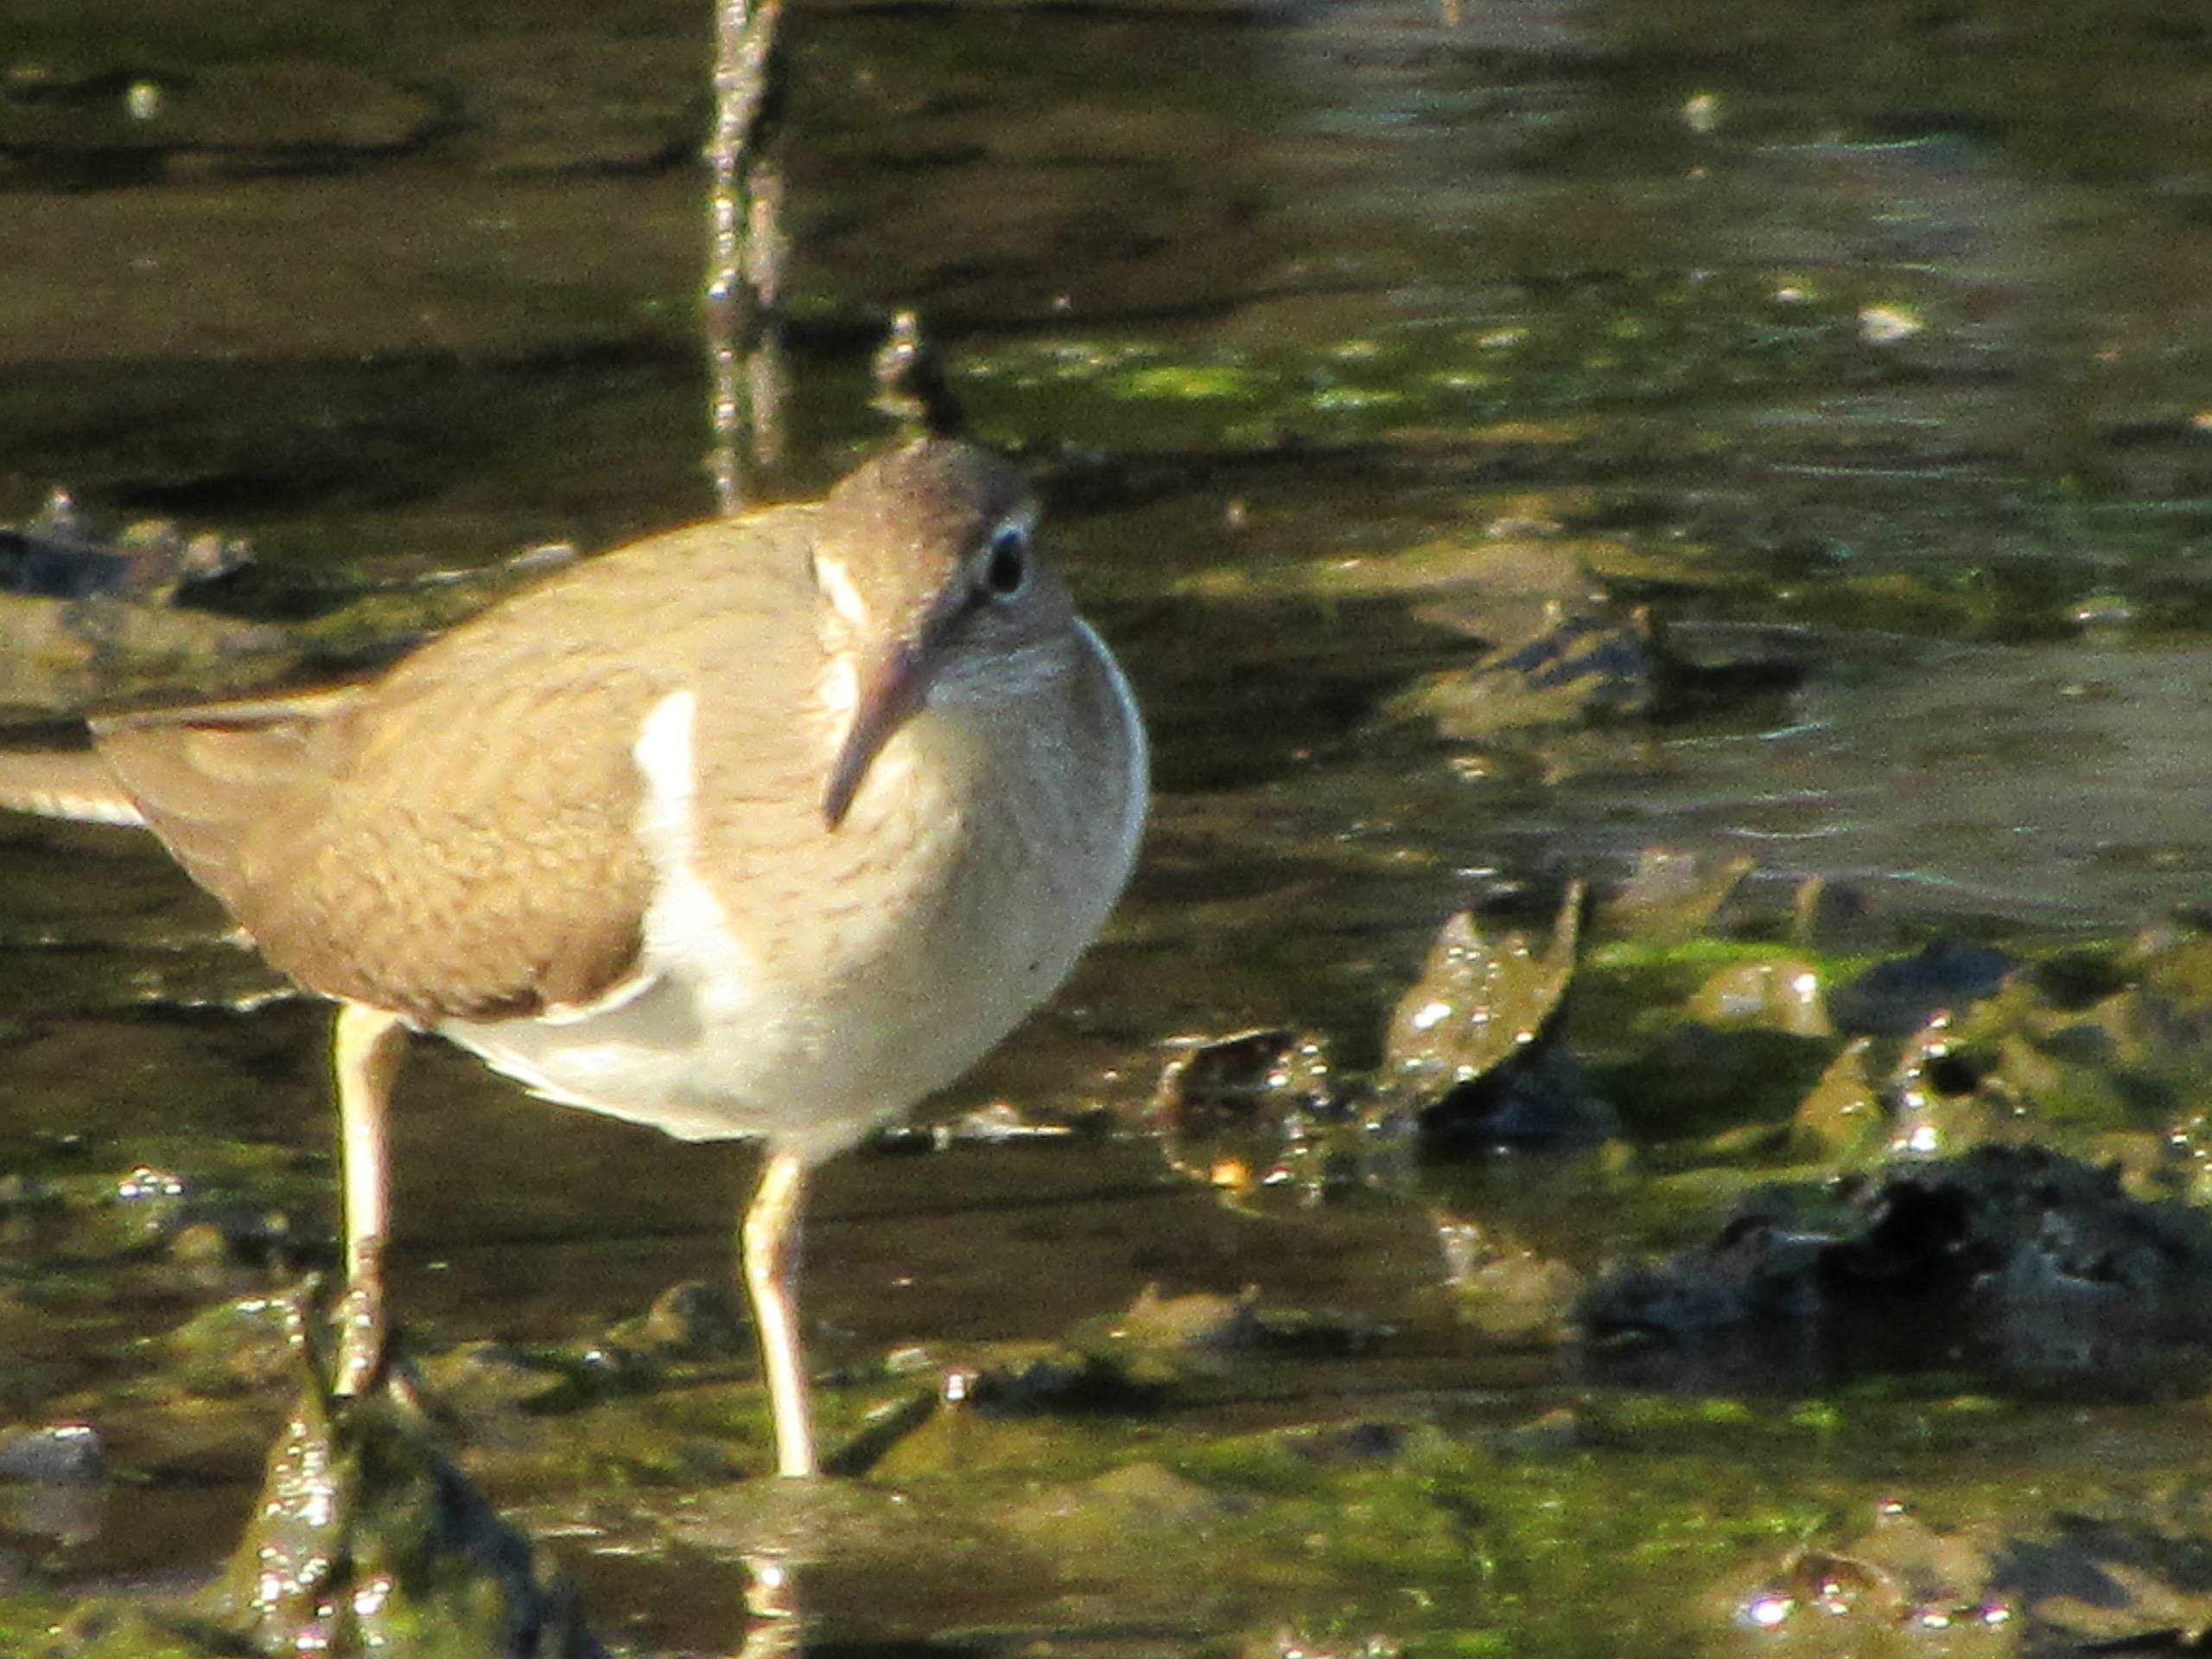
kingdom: Animalia
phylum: Chordata
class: Aves
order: Charadriiformes
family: Scolopacidae
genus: Actitis
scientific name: Actitis hypoleucos
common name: Mudderklire
